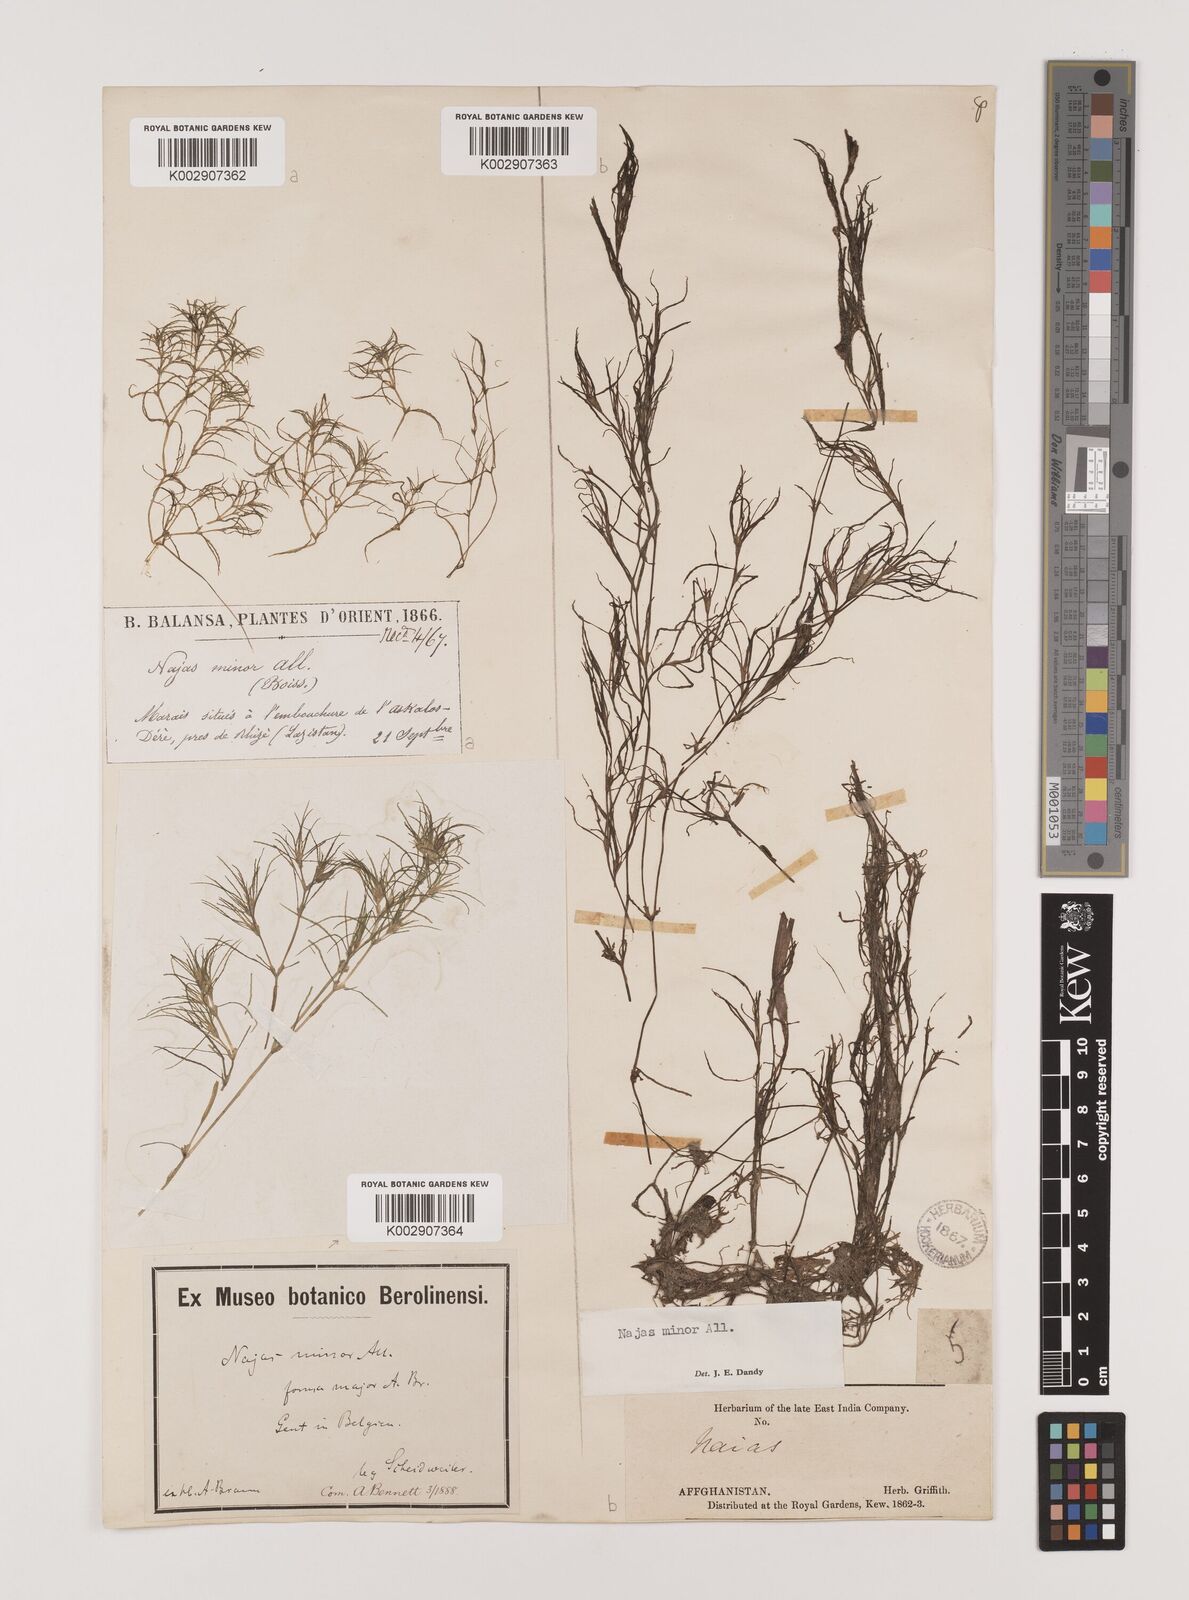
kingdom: Plantae
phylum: Tracheophyta
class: Liliopsida
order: Alismatales
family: Hydrocharitaceae
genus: Najas
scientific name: Najas minor
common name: Brittle naiad
